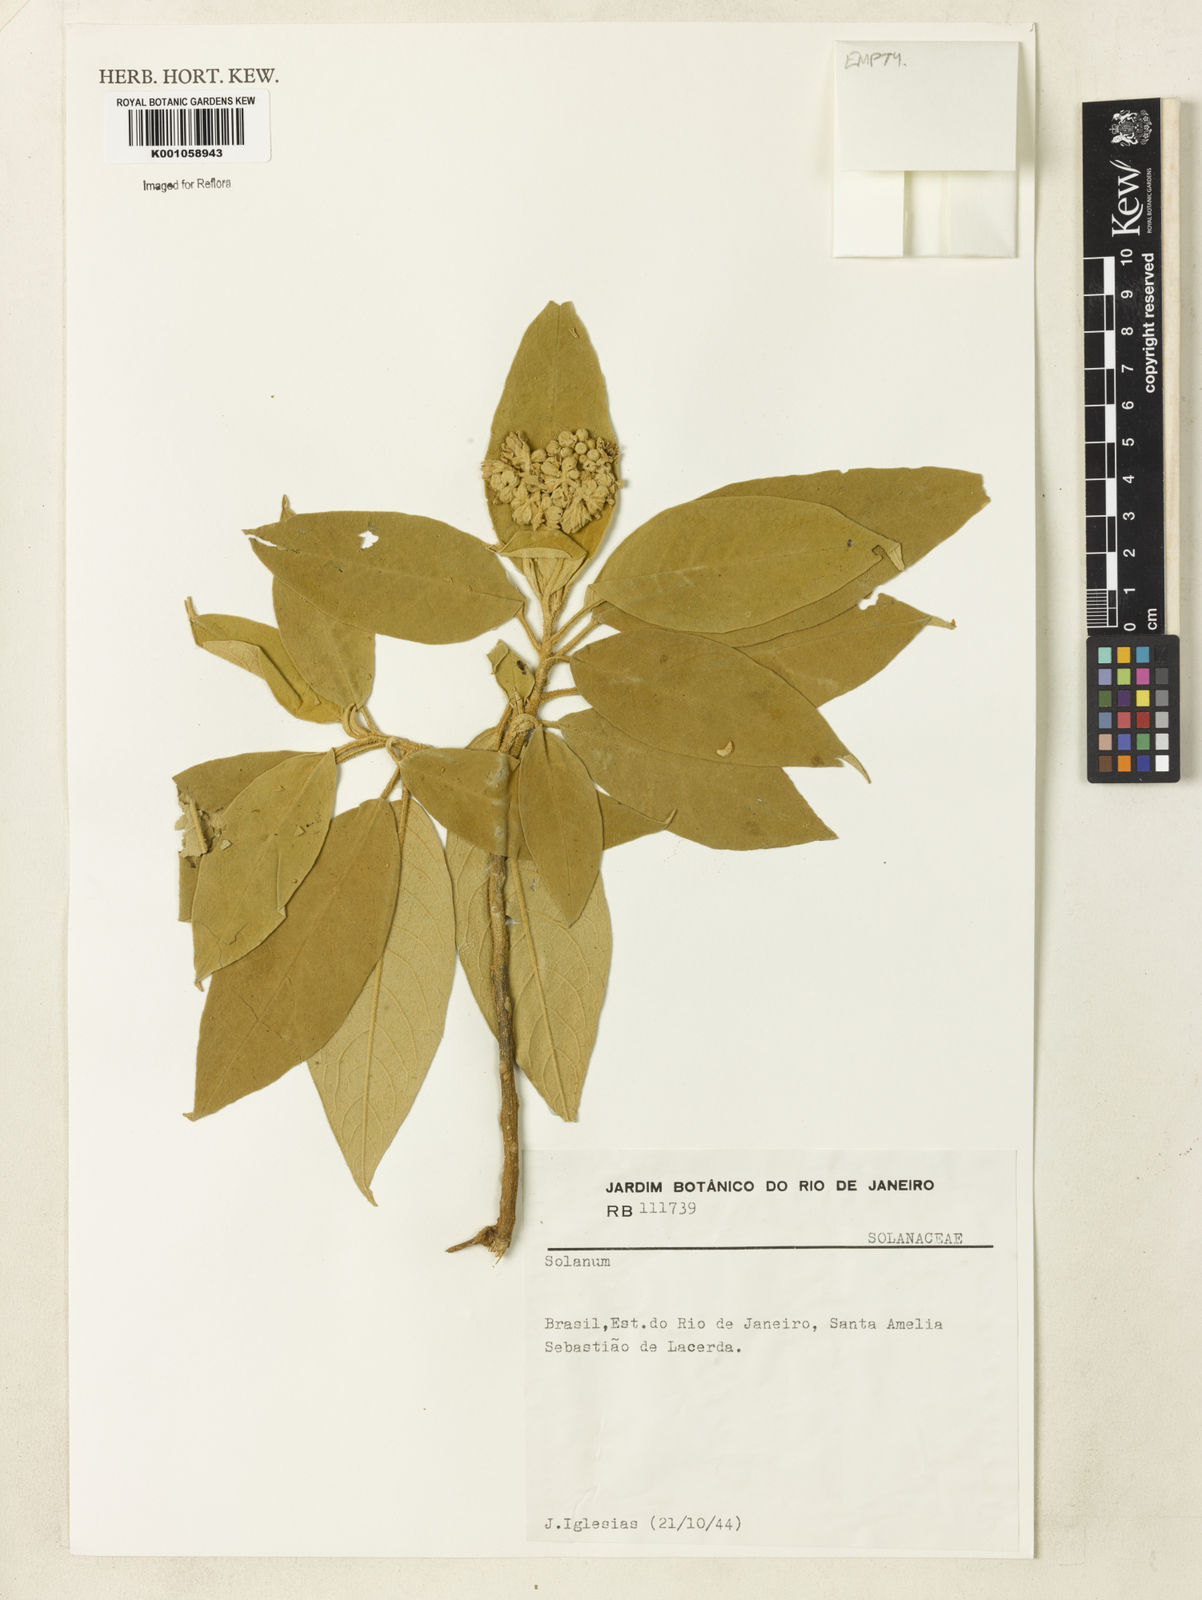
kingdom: Plantae
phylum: Tracheophyta
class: Magnoliopsida
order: Solanales
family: Solanaceae
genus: Solanum
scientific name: Solanum granulosoleprosum
